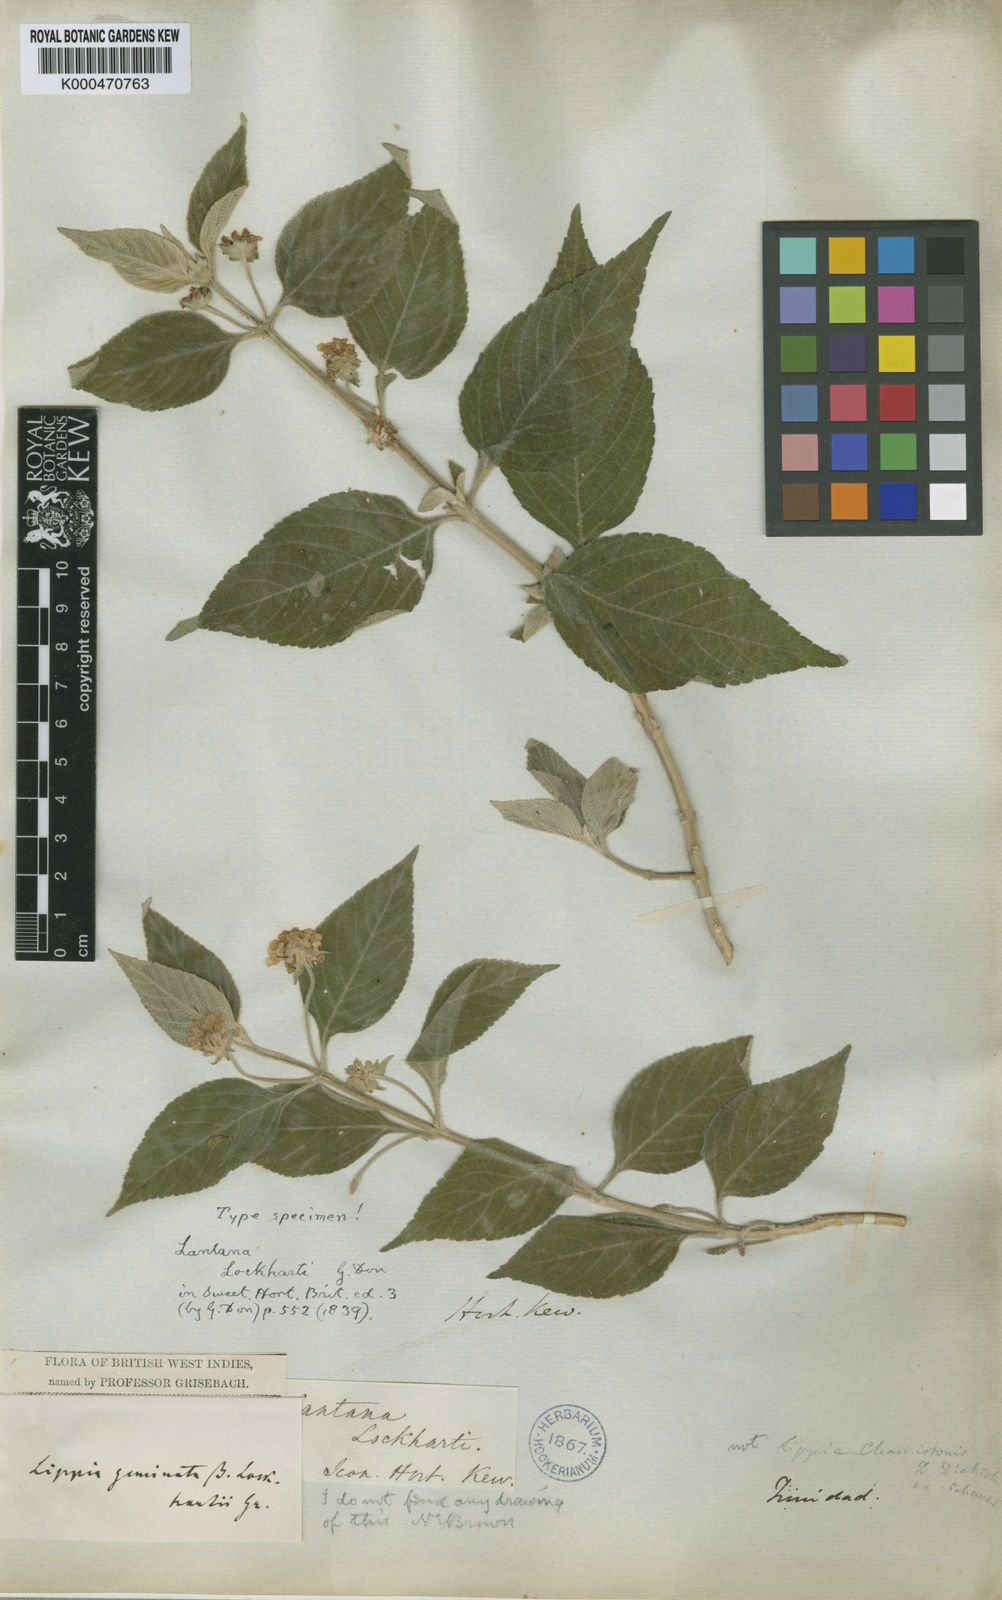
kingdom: Plantae
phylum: Tracheophyta
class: Magnoliopsida
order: Lamiales
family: Verbenaceae
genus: Lantana
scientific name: Lantana lockhardtii
